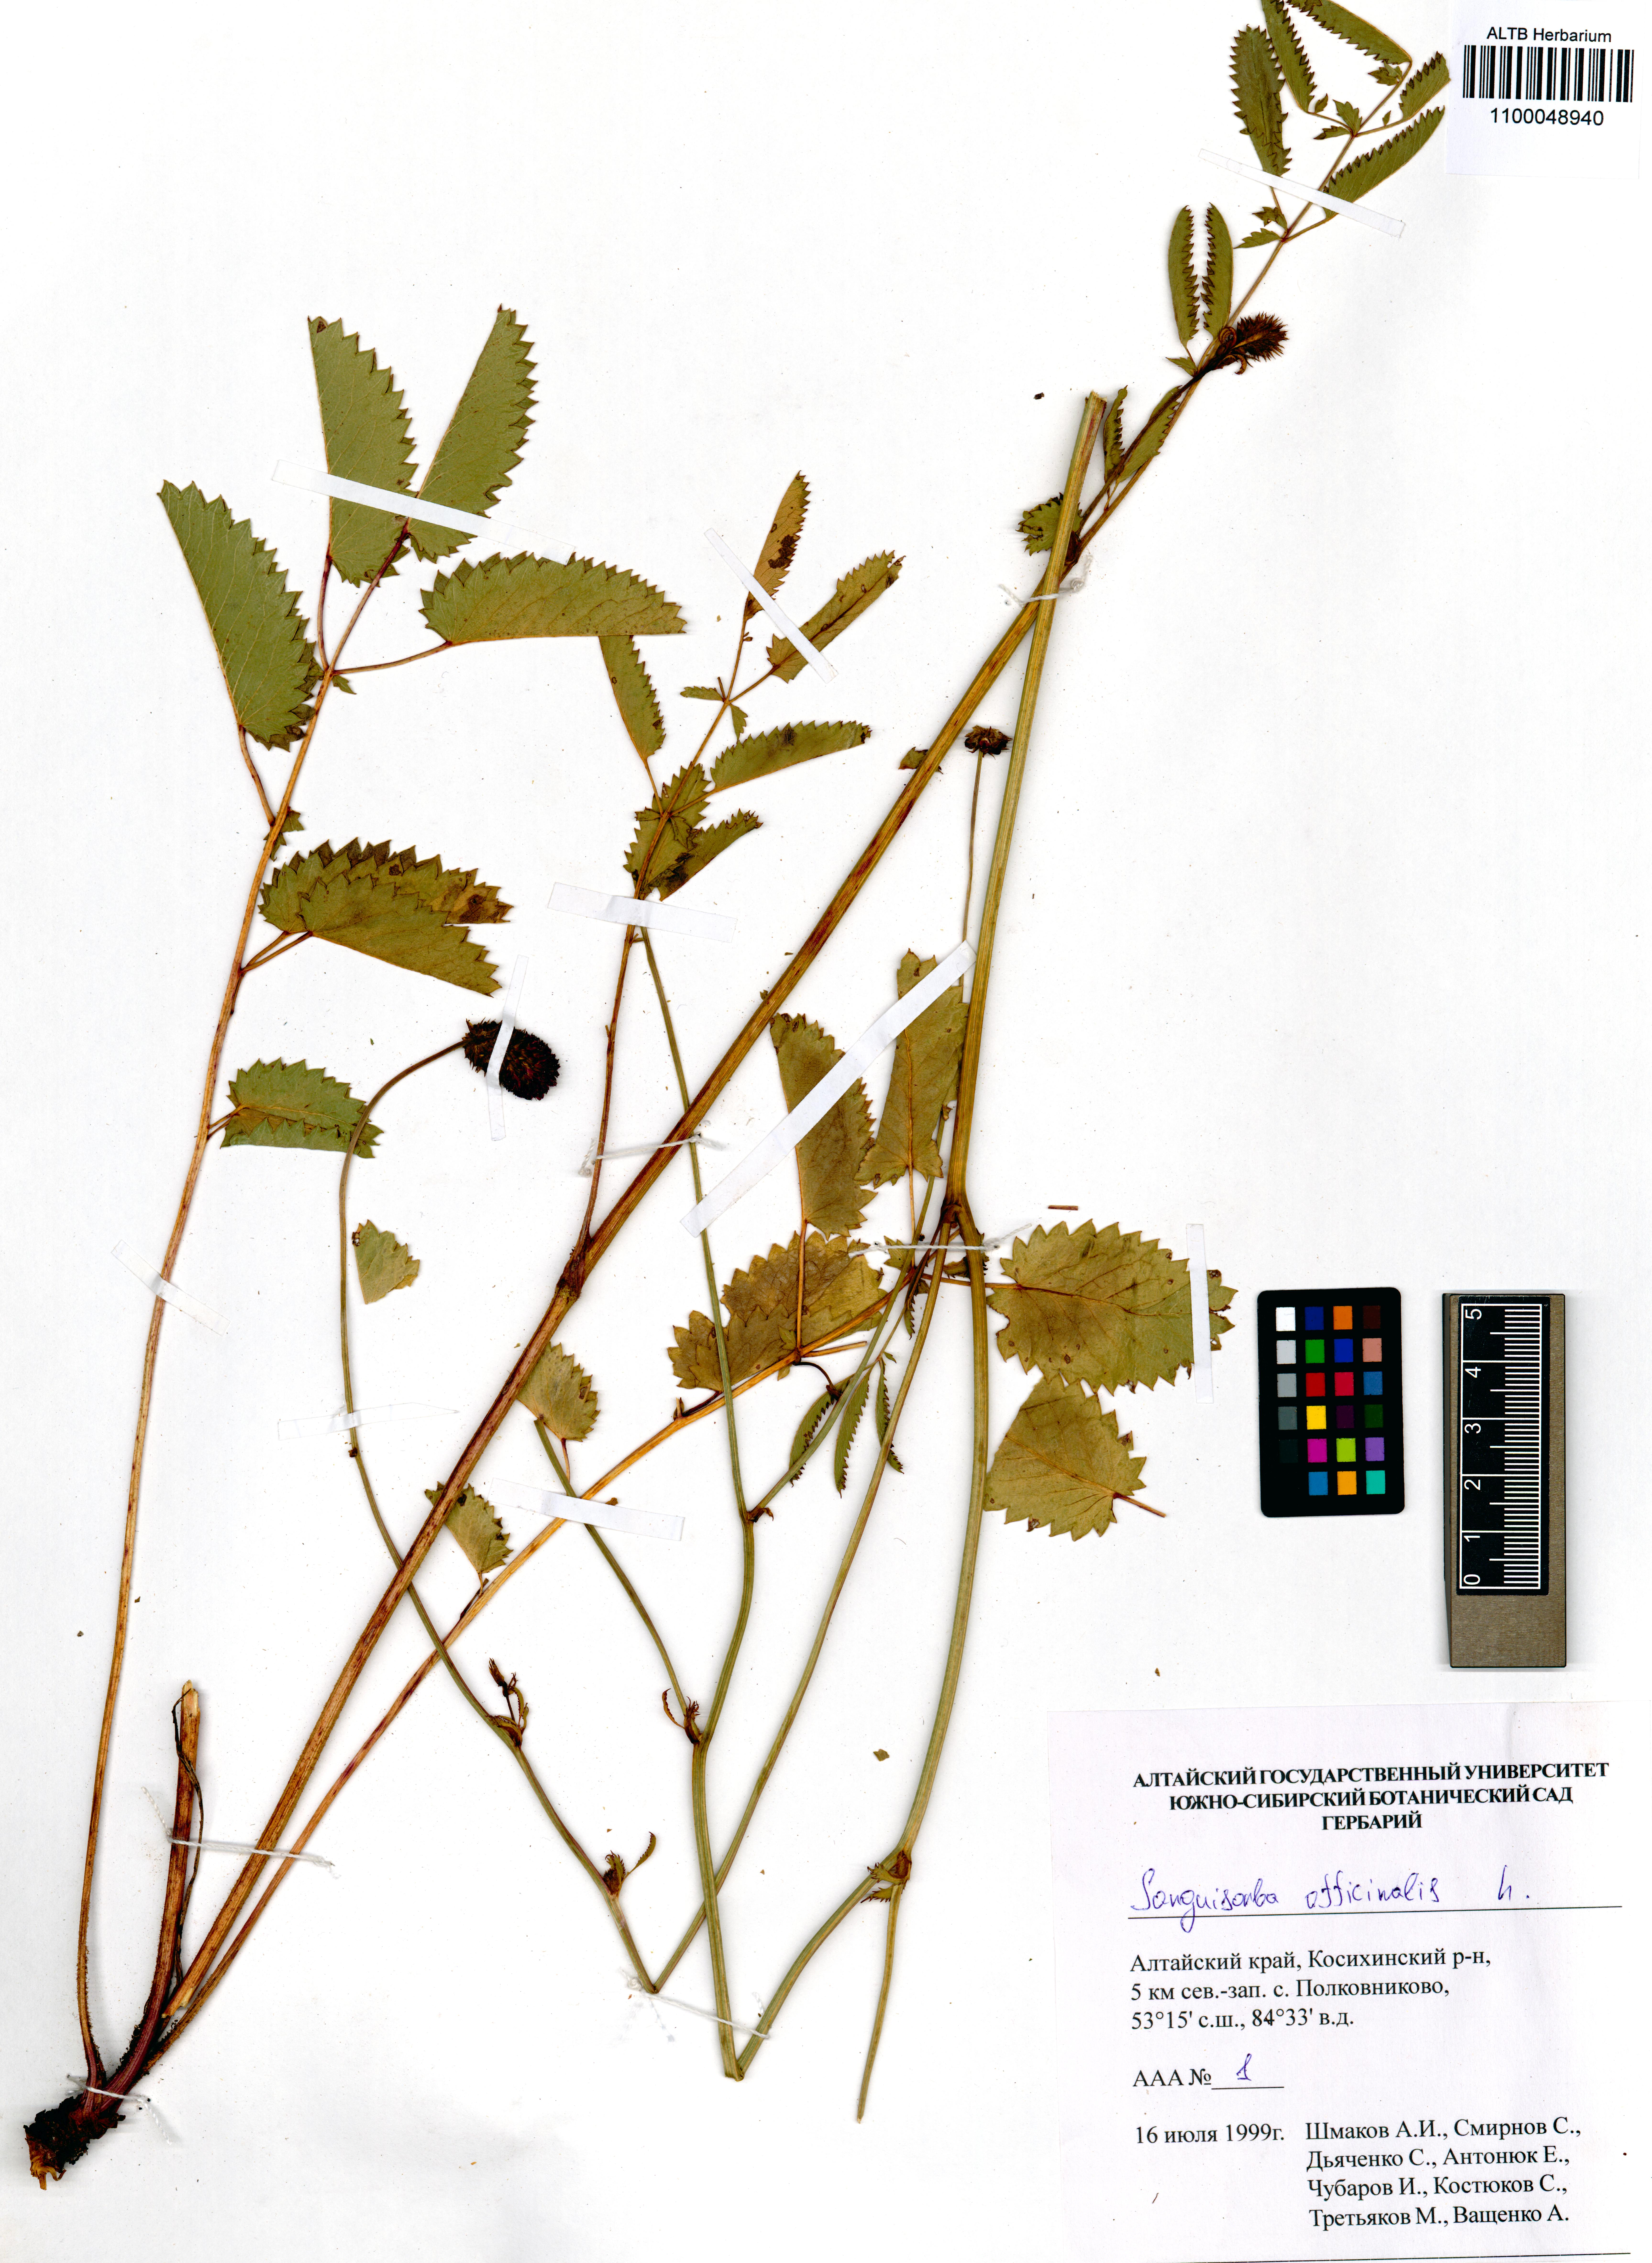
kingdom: Plantae
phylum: Tracheophyta
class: Magnoliopsida
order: Rosales
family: Rosaceae
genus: Sanguisorba
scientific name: Sanguisorba officinalis
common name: Great burnet
